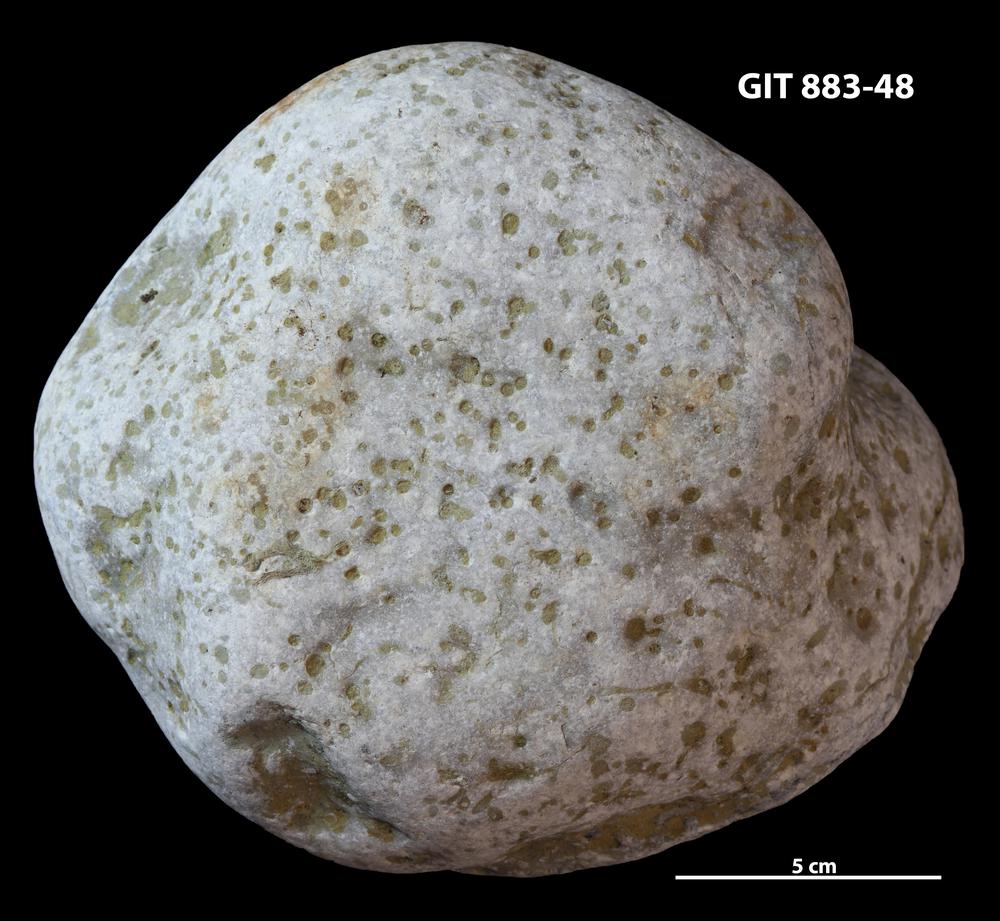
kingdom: Animalia
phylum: Porifera
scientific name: Porifera
